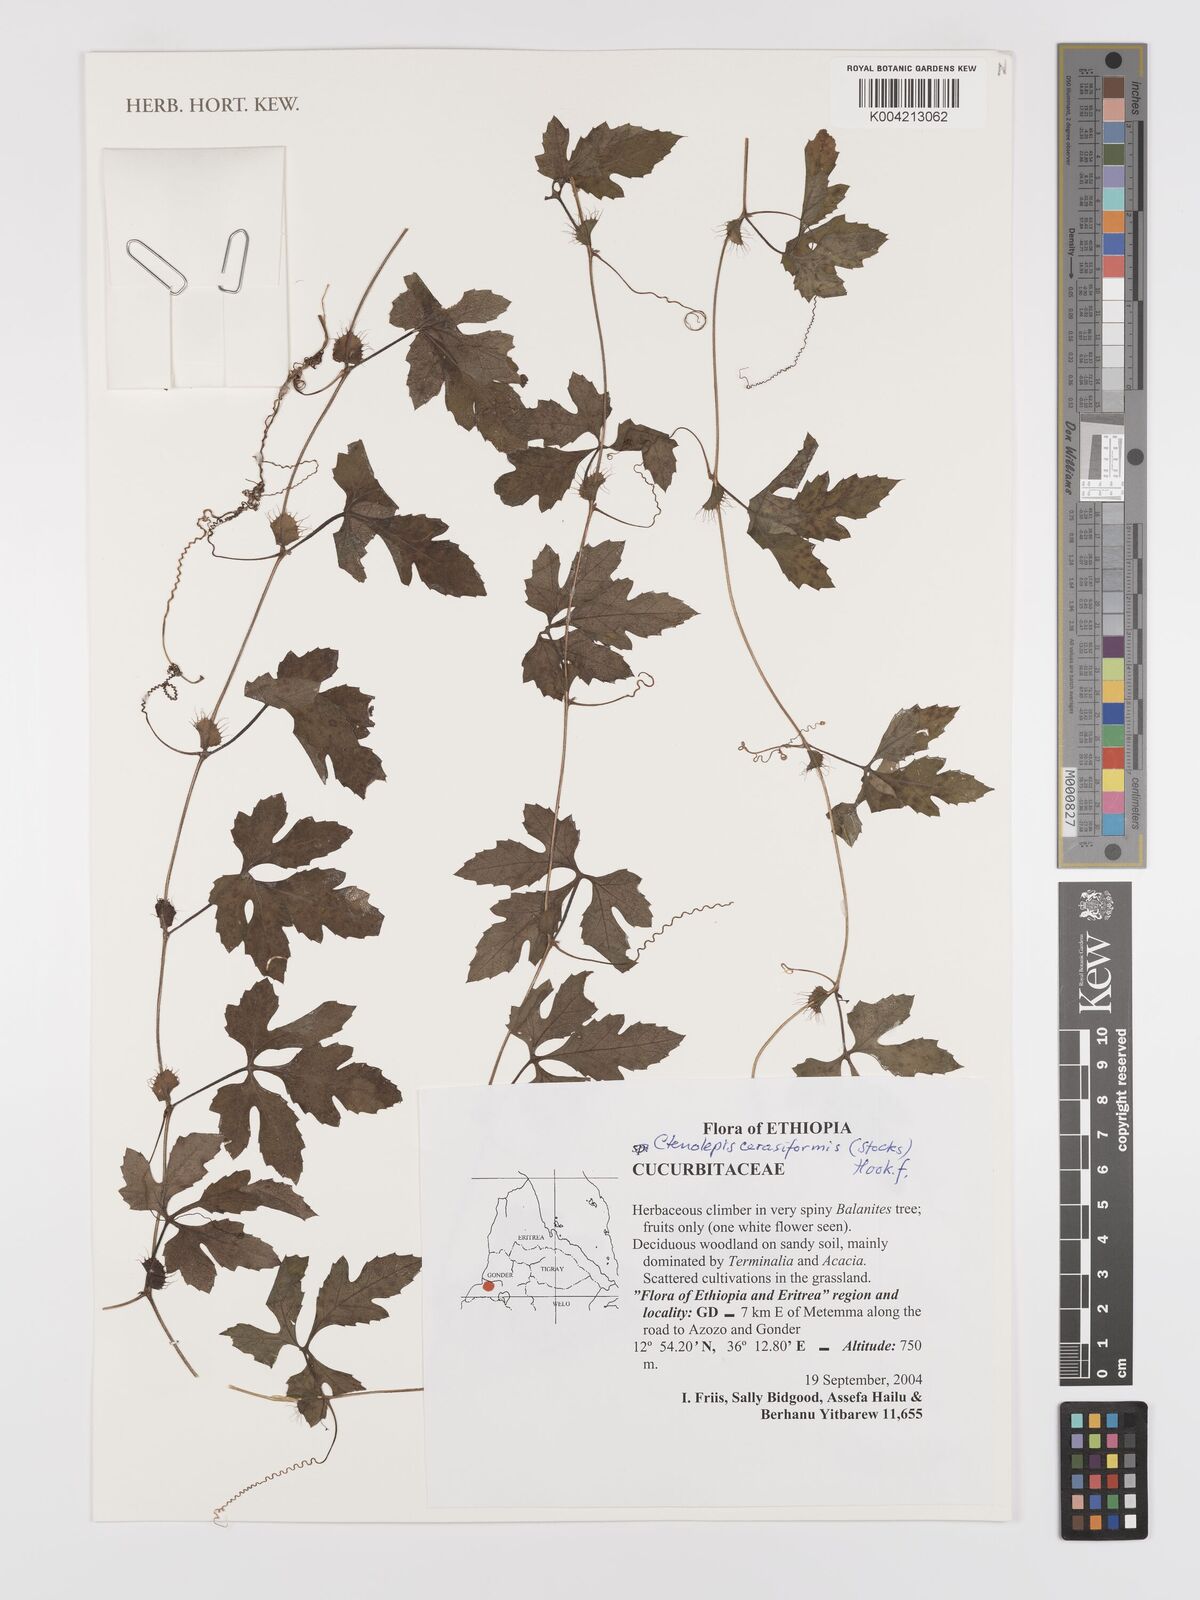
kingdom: Plantae
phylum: Tracheophyta
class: Magnoliopsida
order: Cucurbitales
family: Cucurbitaceae
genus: Blastania
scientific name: Blastania cerasiformis
